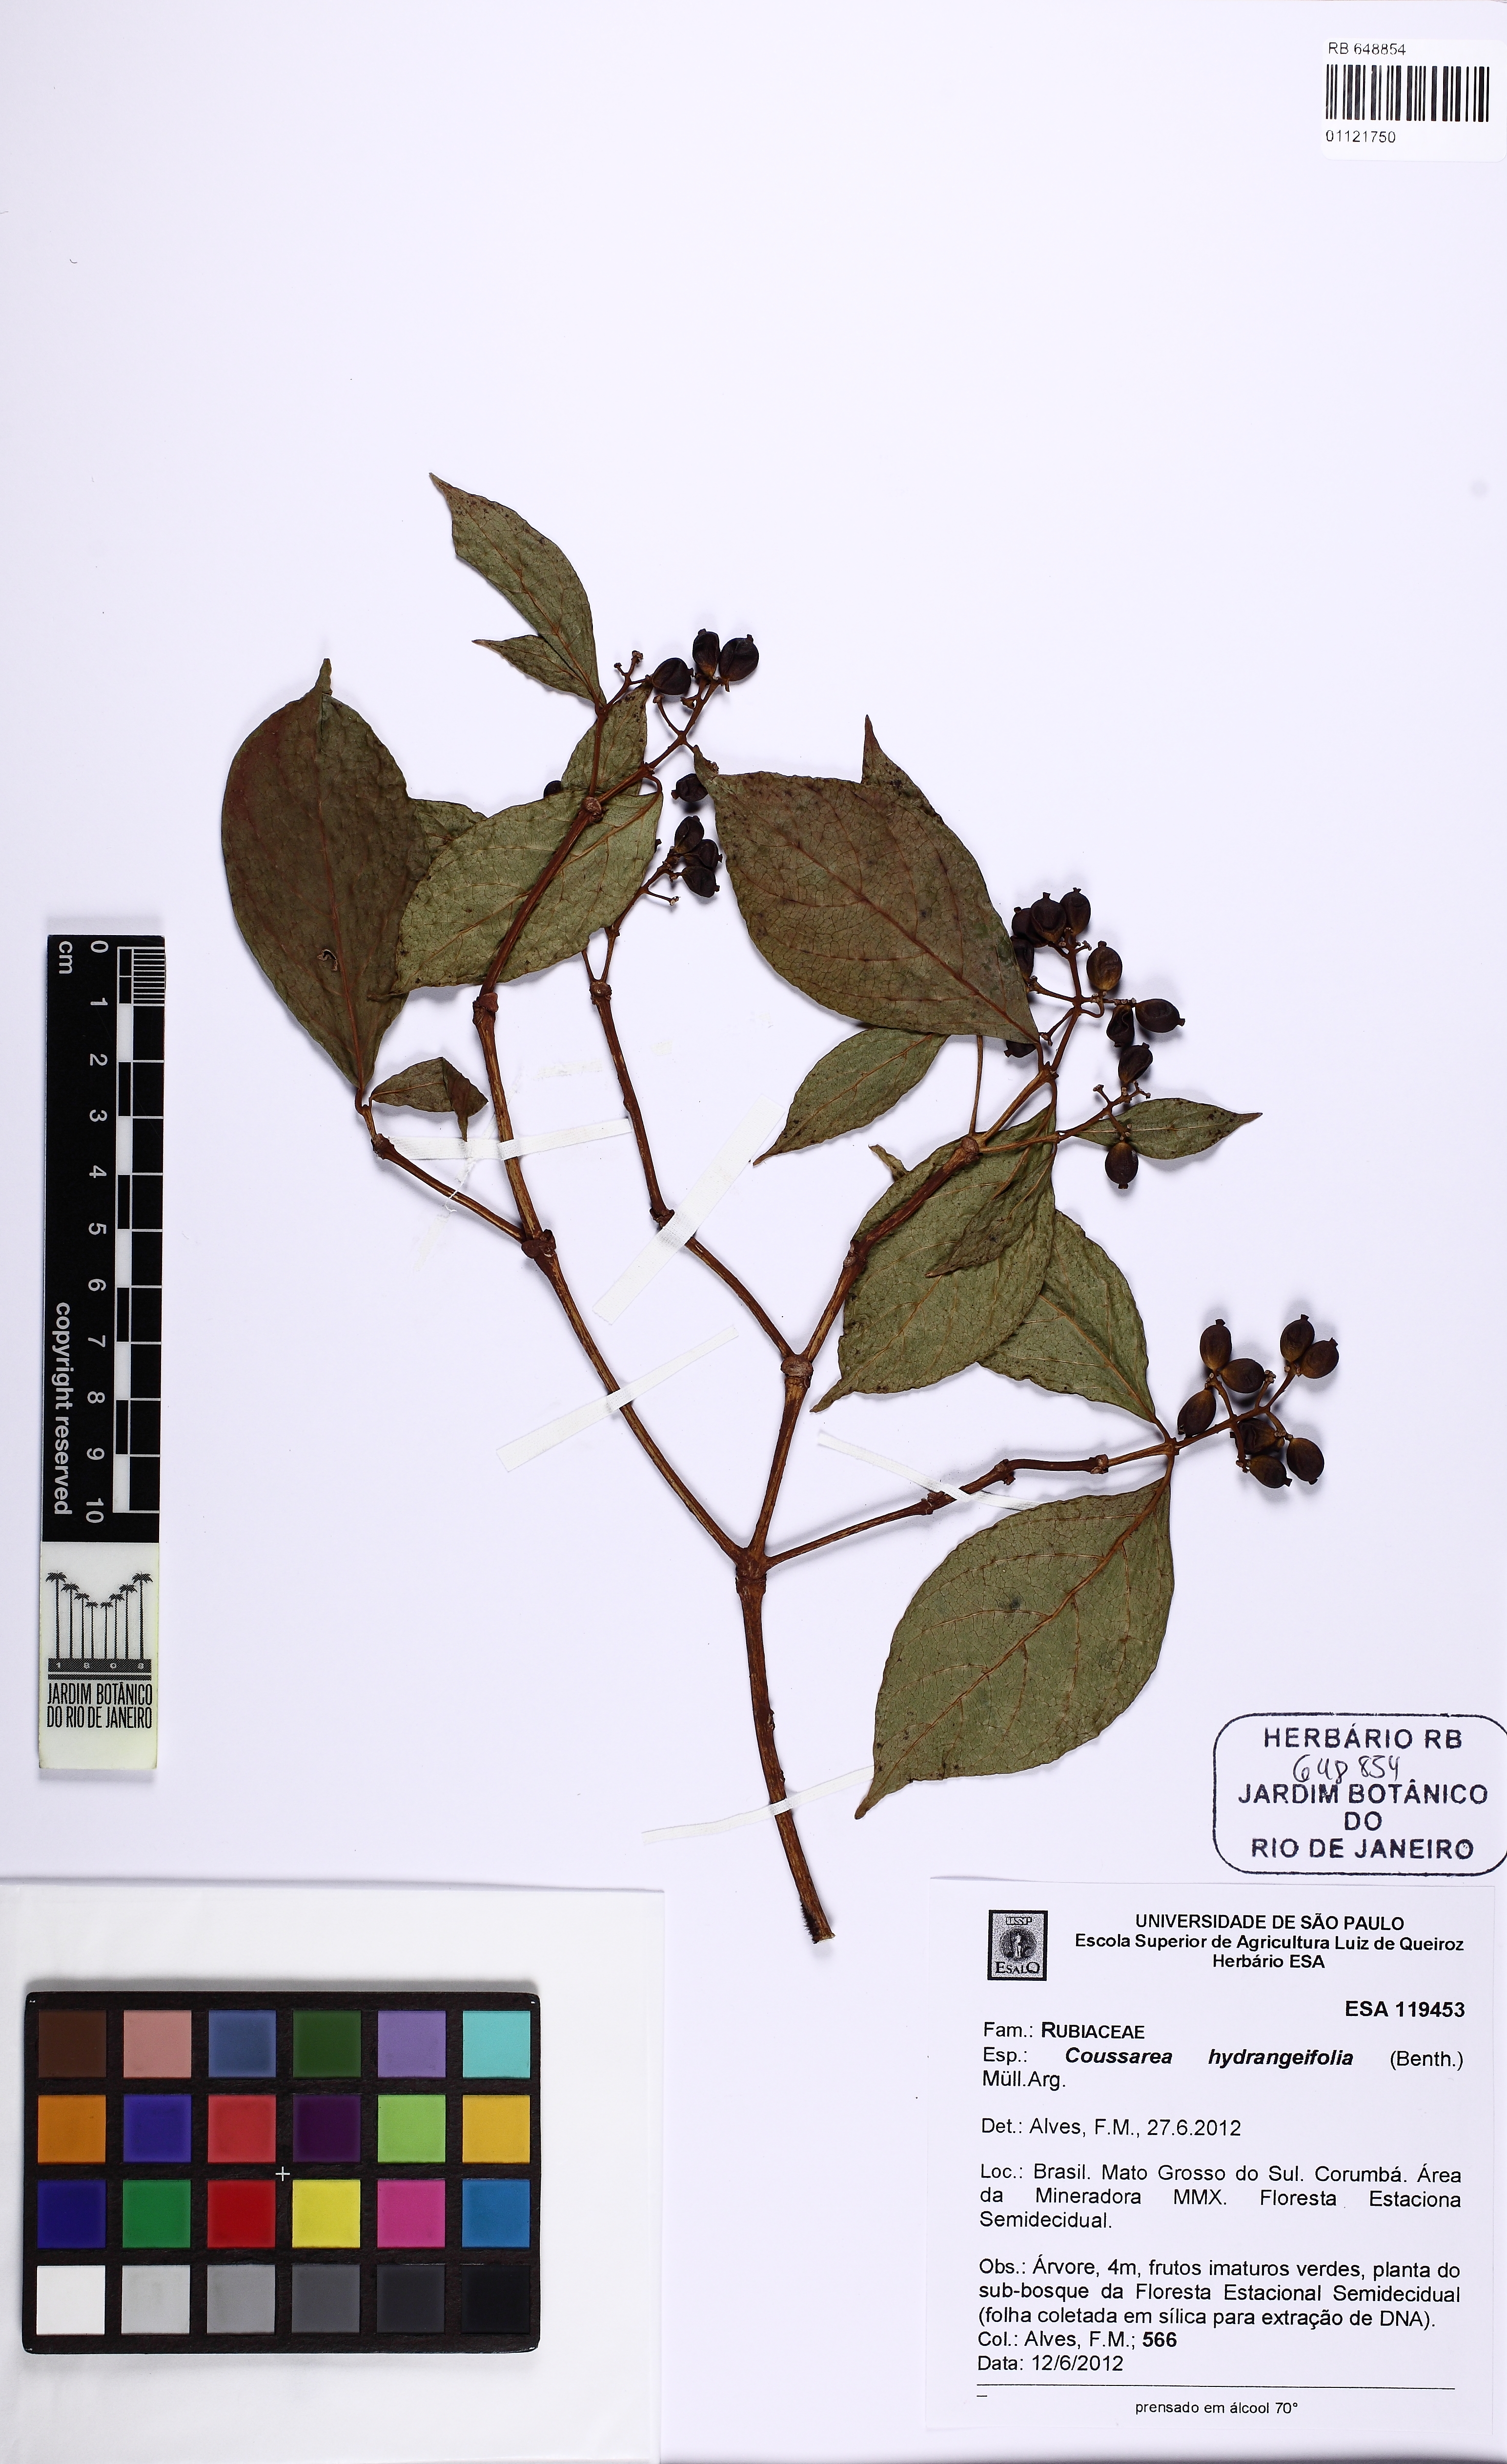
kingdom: Plantae
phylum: Tracheophyta
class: Magnoliopsida
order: Gentianales
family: Rubiaceae
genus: Coussarea
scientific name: Coussarea hydrangeifolia
